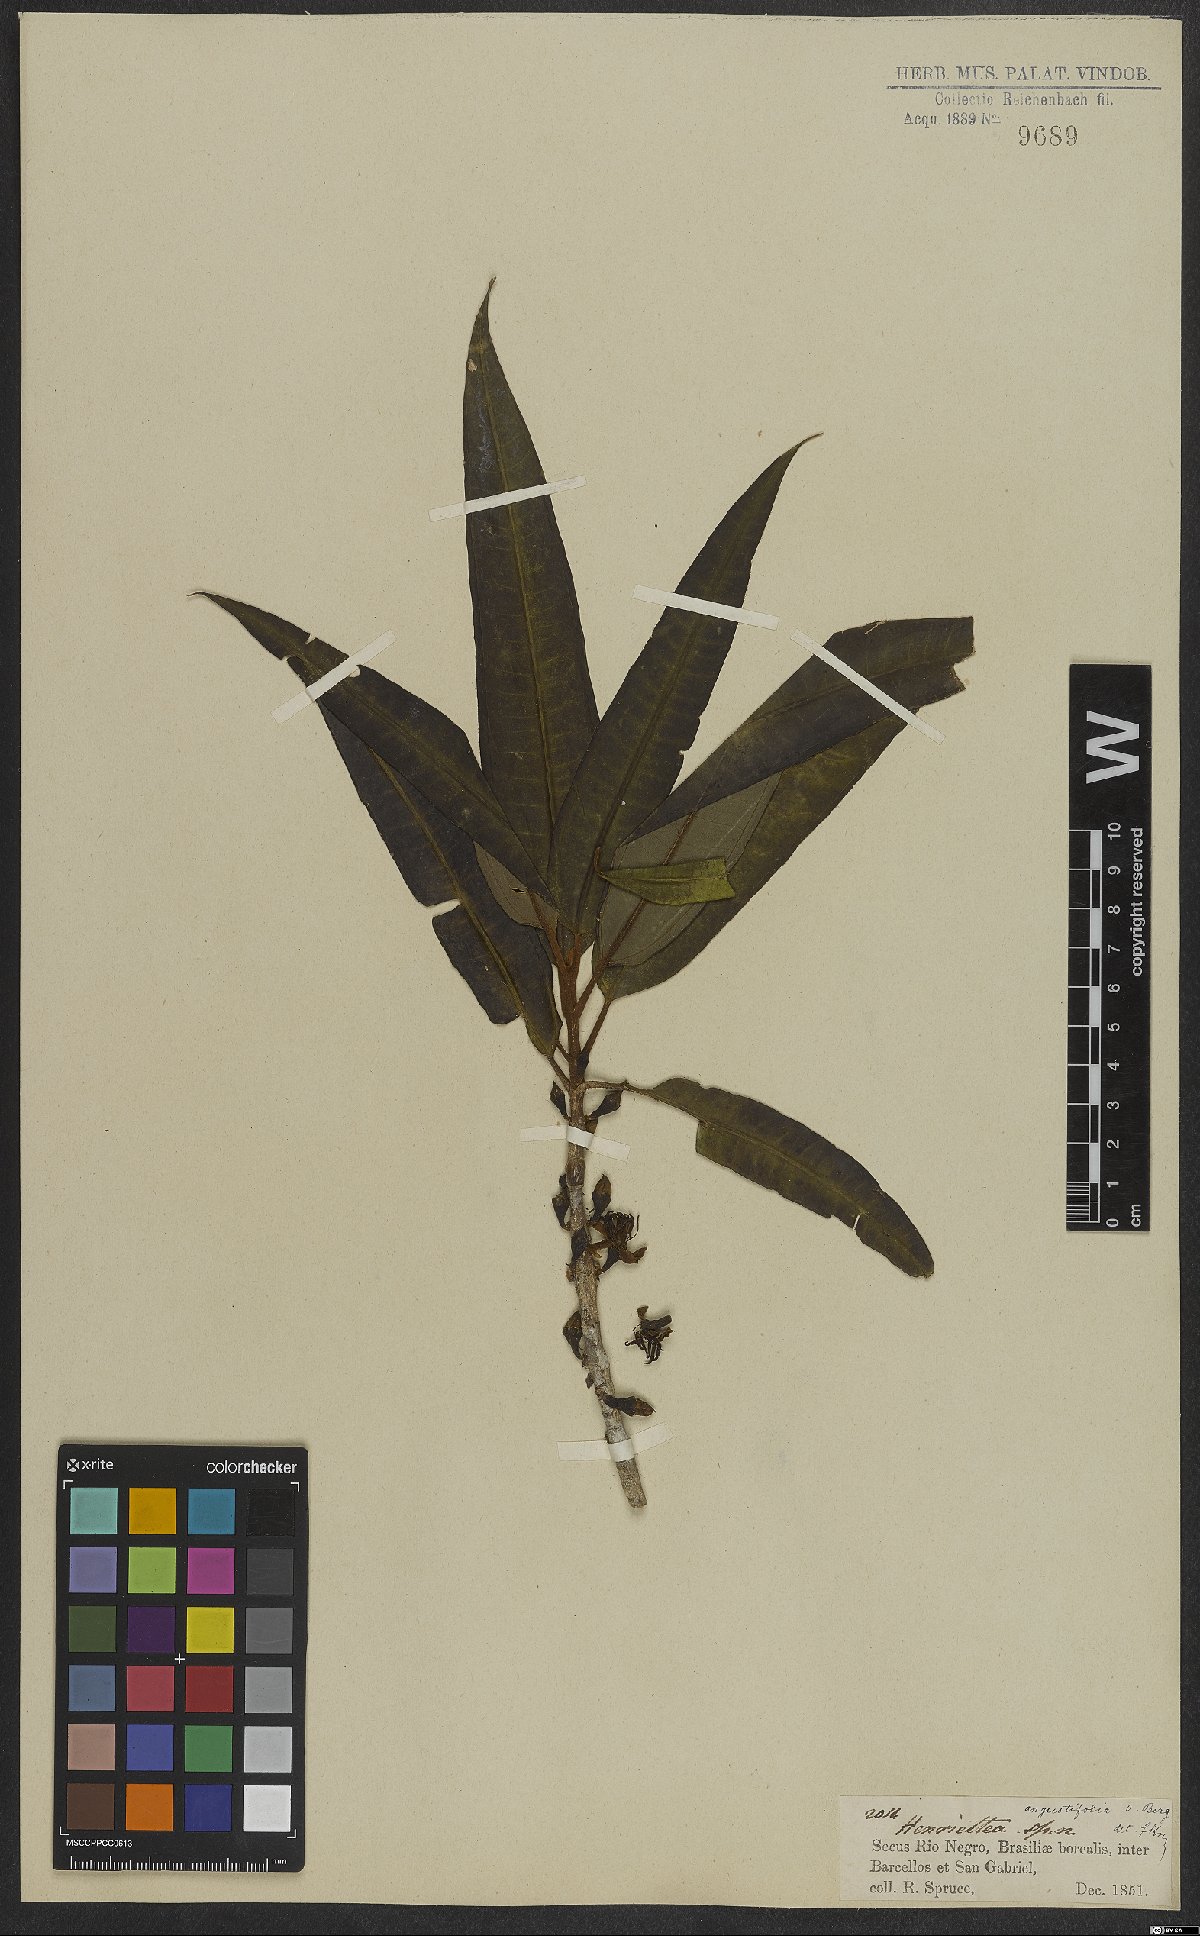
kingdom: Plantae
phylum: Tracheophyta
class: Magnoliopsida
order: Myrtales
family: Melastomataceae
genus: Henriettea
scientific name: Henriettea angustifolia
